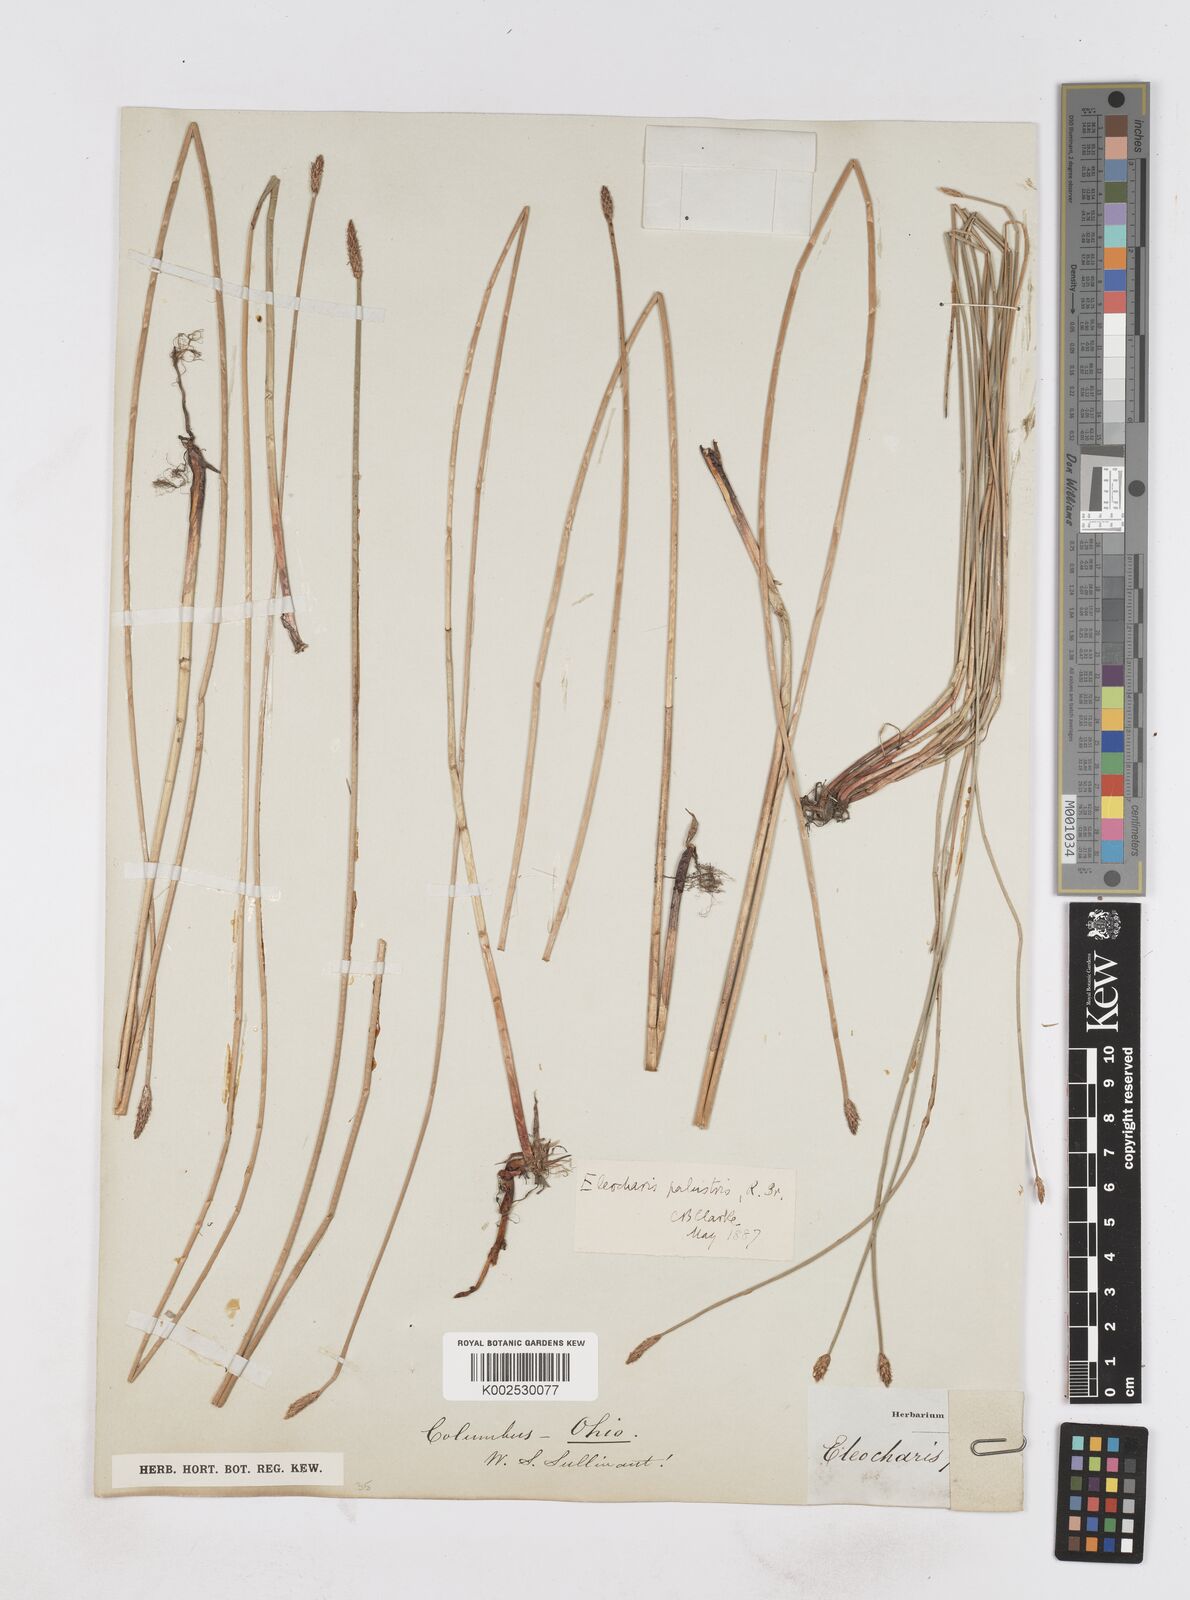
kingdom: Plantae
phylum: Tracheophyta
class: Liliopsida
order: Poales
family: Cyperaceae
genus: Eleocharis
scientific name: Eleocharis palustris
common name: Common spike-rush
